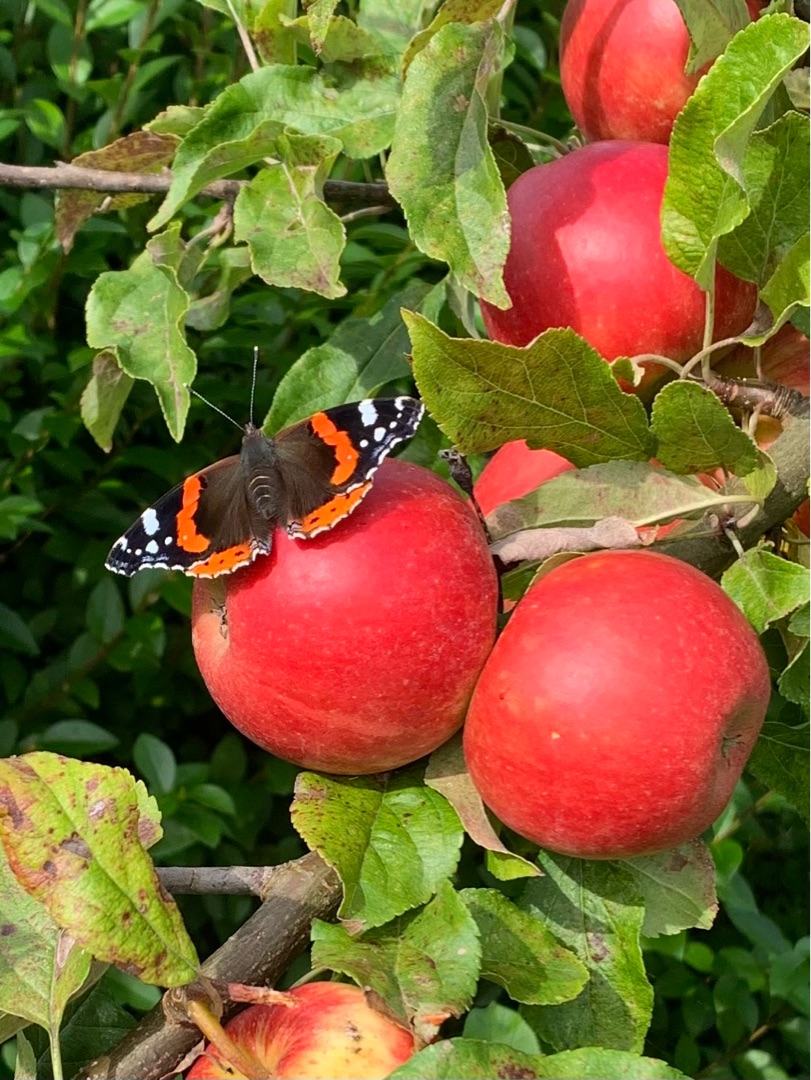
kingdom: Animalia
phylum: Arthropoda
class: Insecta
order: Lepidoptera
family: Nymphalidae
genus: Vanessa
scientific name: Vanessa atalanta
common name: Admiral
